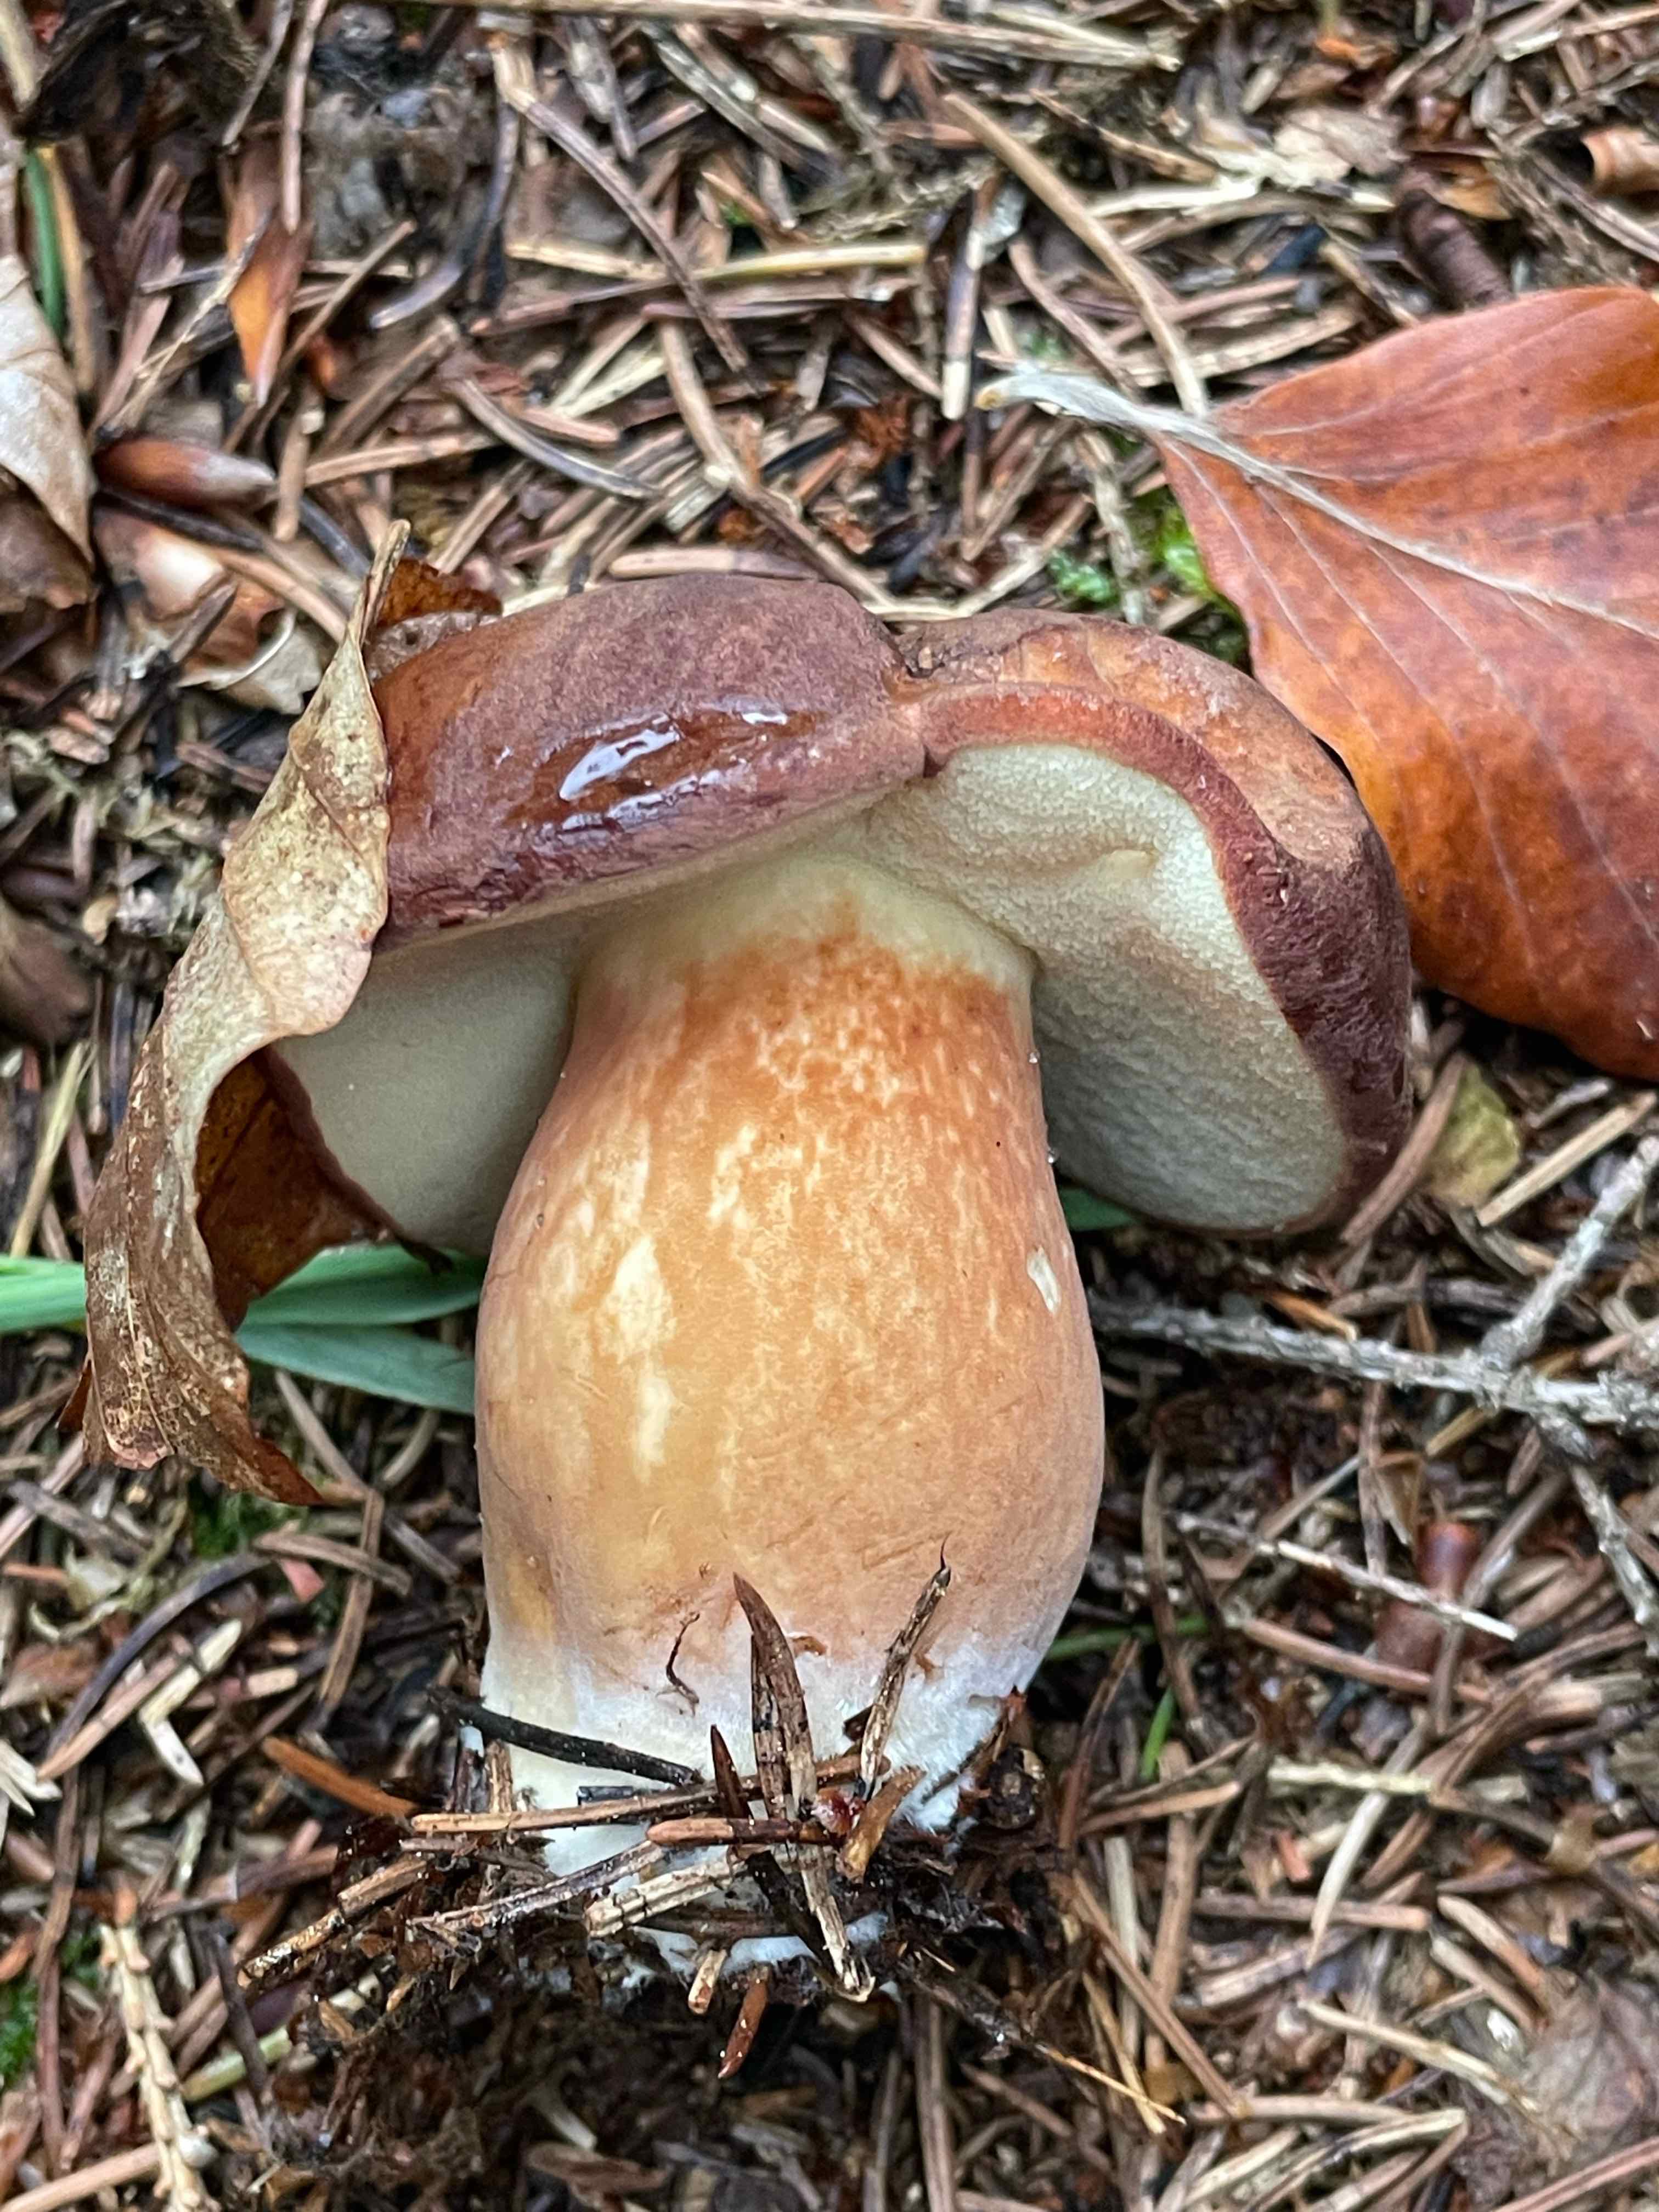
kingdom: Fungi
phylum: Basidiomycota
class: Agaricomycetes
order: Boletales
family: Boletaceae
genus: Imleria
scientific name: Imleria badia
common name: brunstokket rørhat
